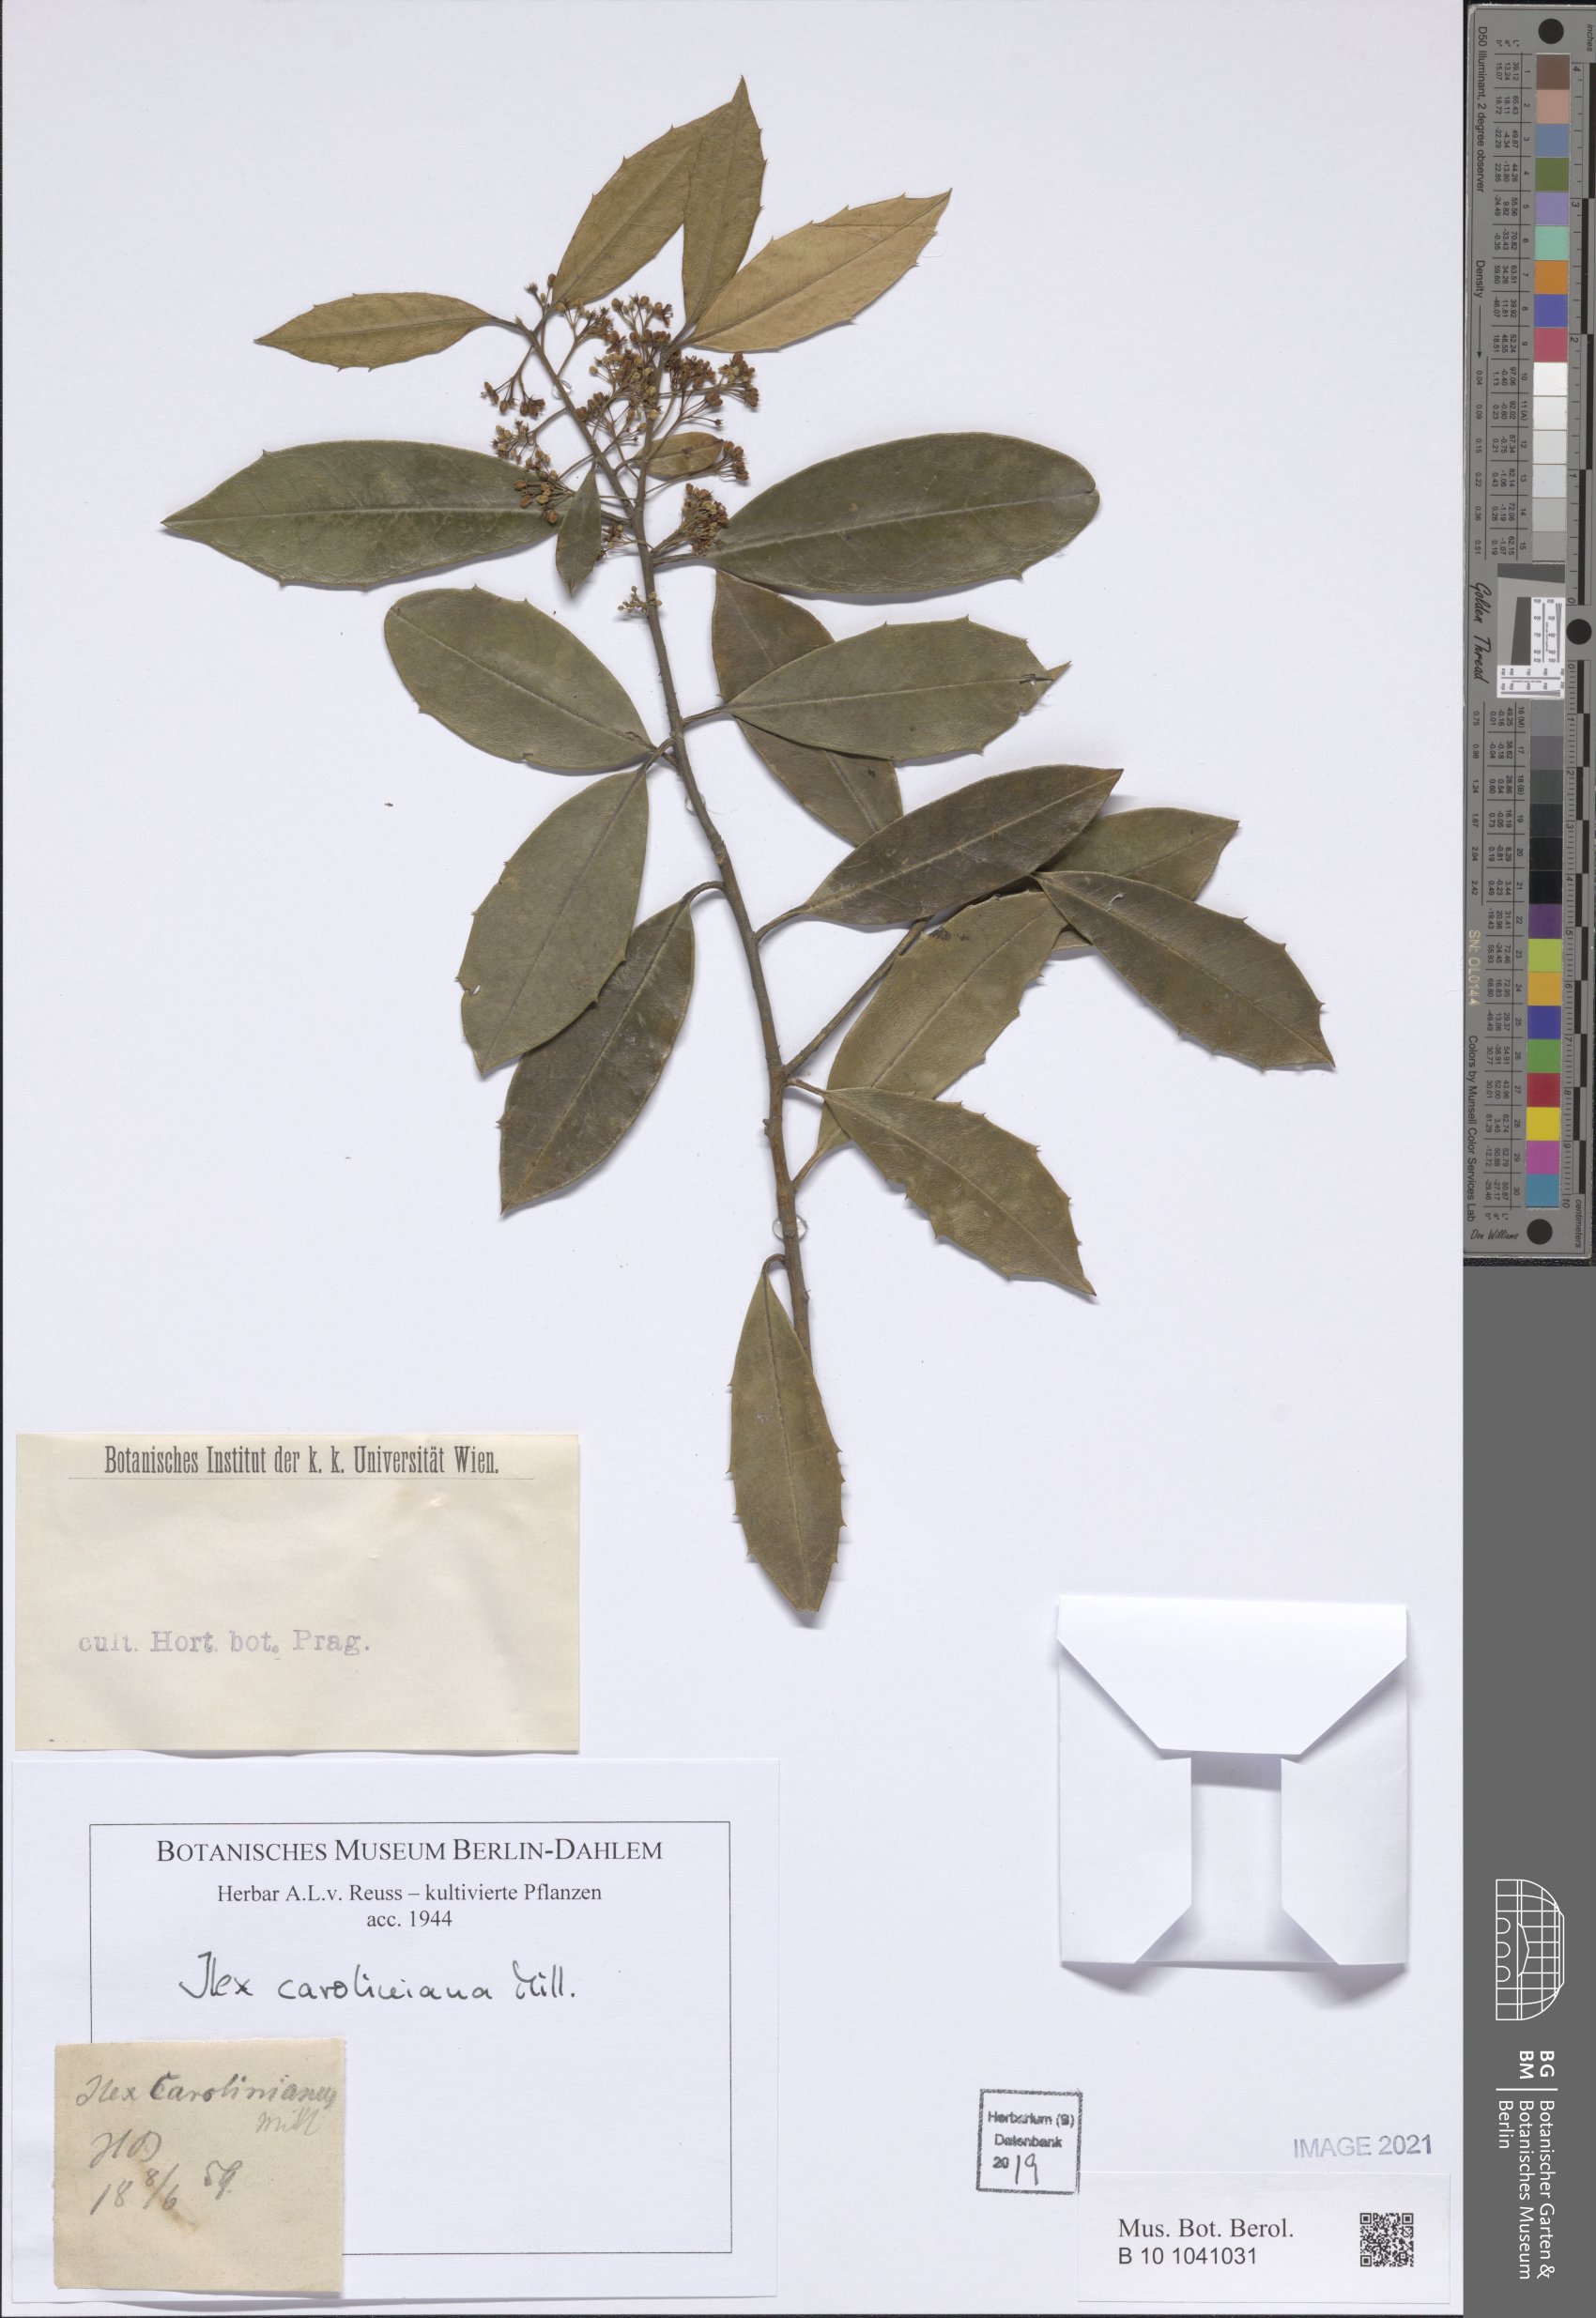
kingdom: Plantae
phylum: Tracheophyta
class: Magnoliopsida
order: Aquifoliales
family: Aquifoliaceae
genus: Ilex
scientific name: Ilex cassine
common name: Dahoon
